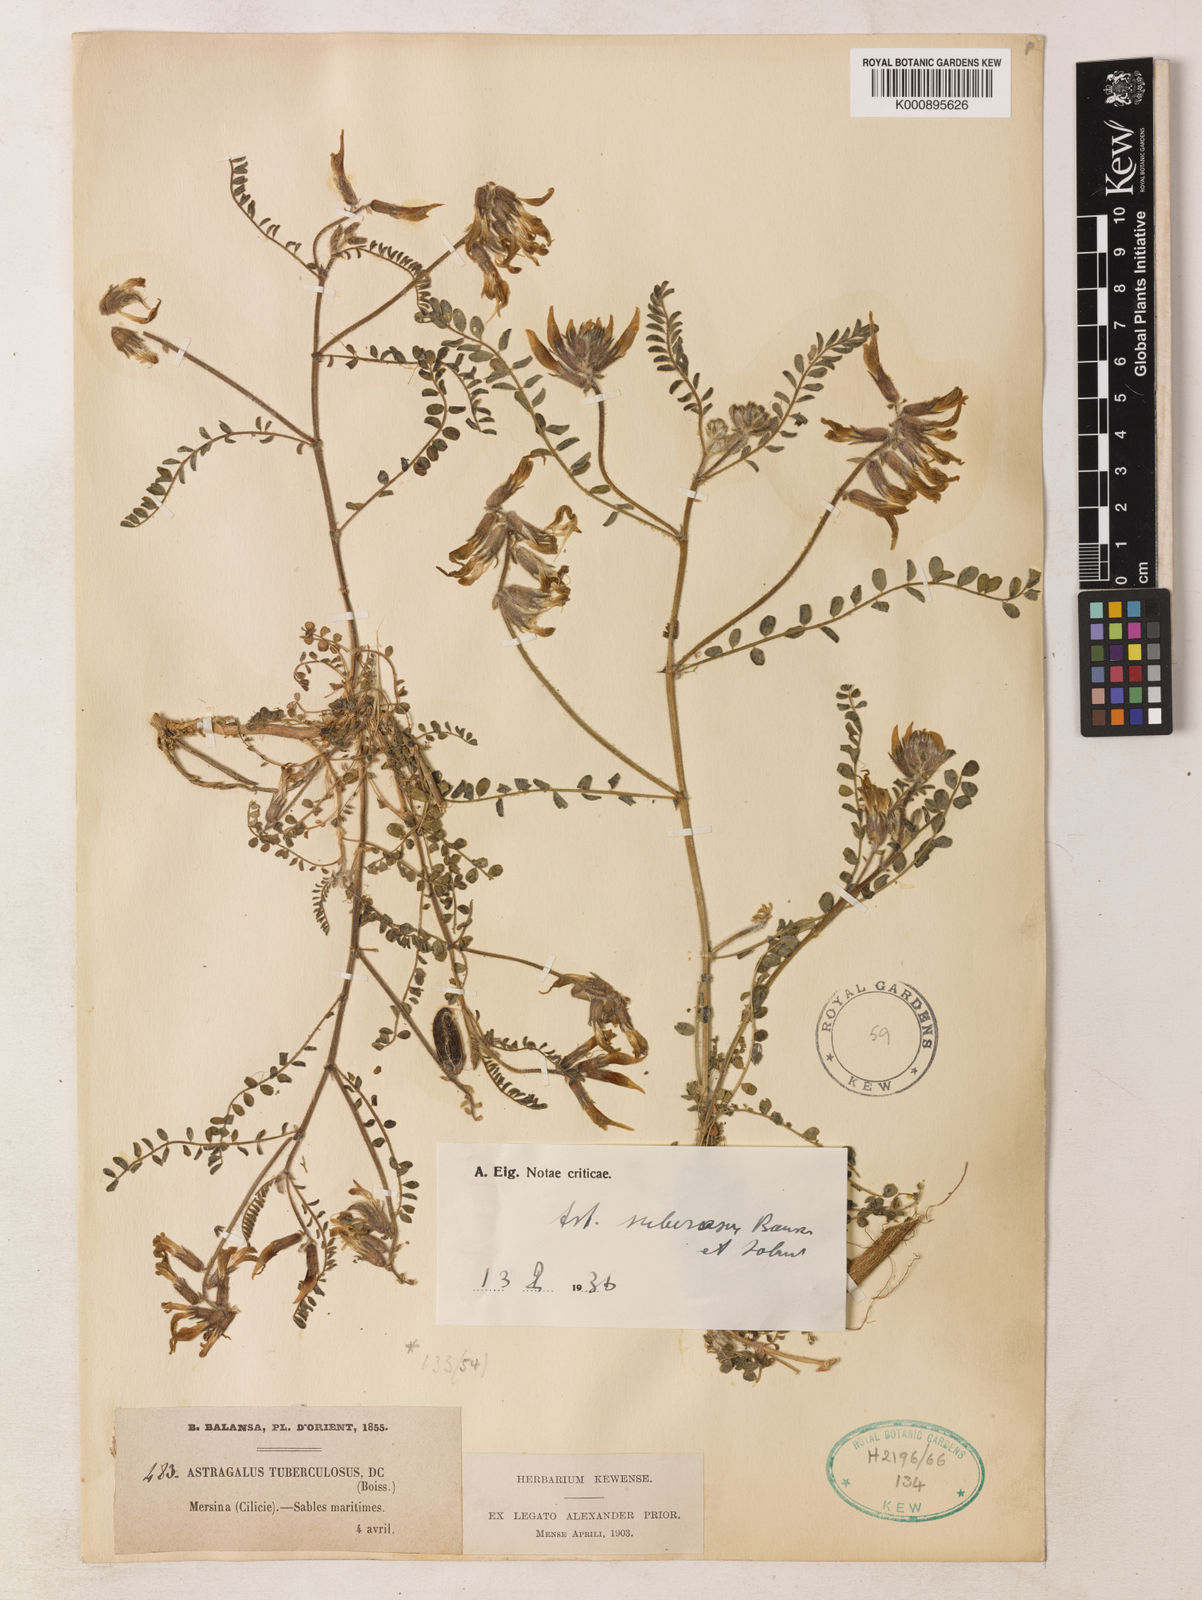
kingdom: Plantae
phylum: Tracheophyta
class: Magnoliopsida
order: Fabales
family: Fabaceae
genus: Astragalus
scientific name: Astragalus suberosus
